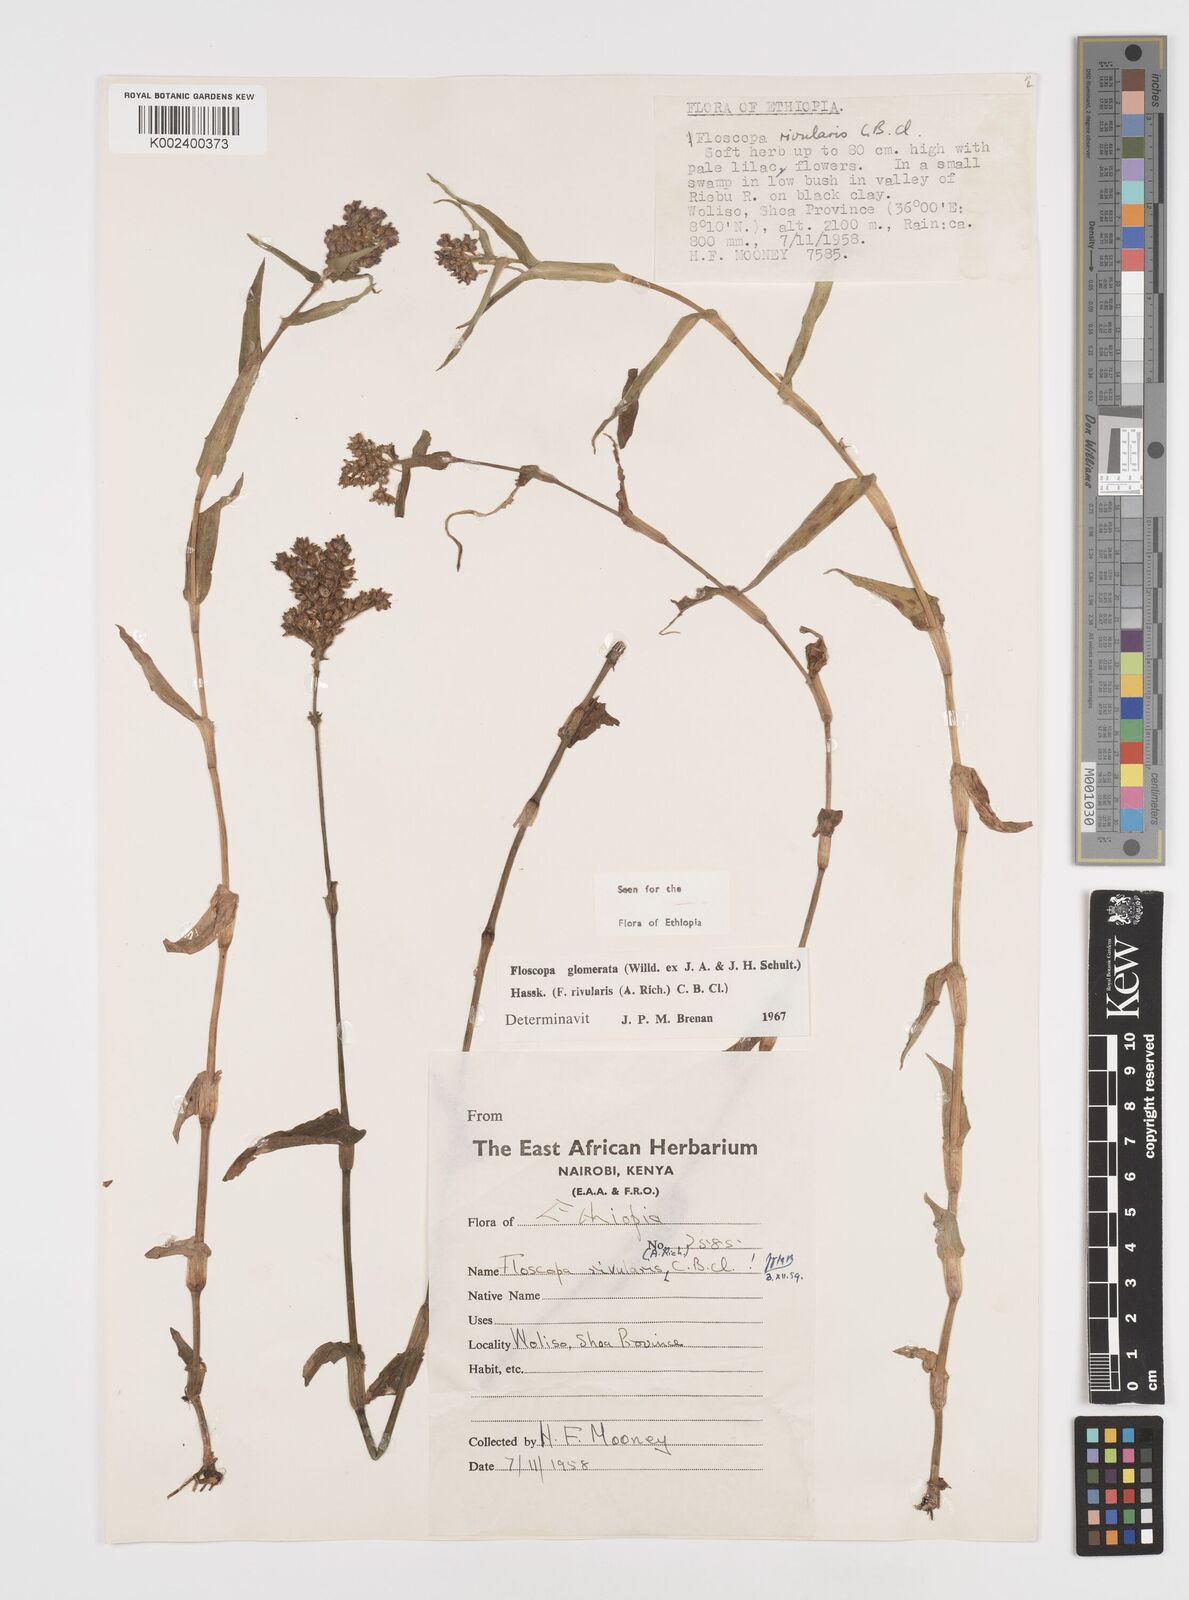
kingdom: Plantae
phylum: Tracheophyta
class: Liliopsida
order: Commelinales
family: Commelinaceae
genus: Floscopa
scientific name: Floscopa glomerata
